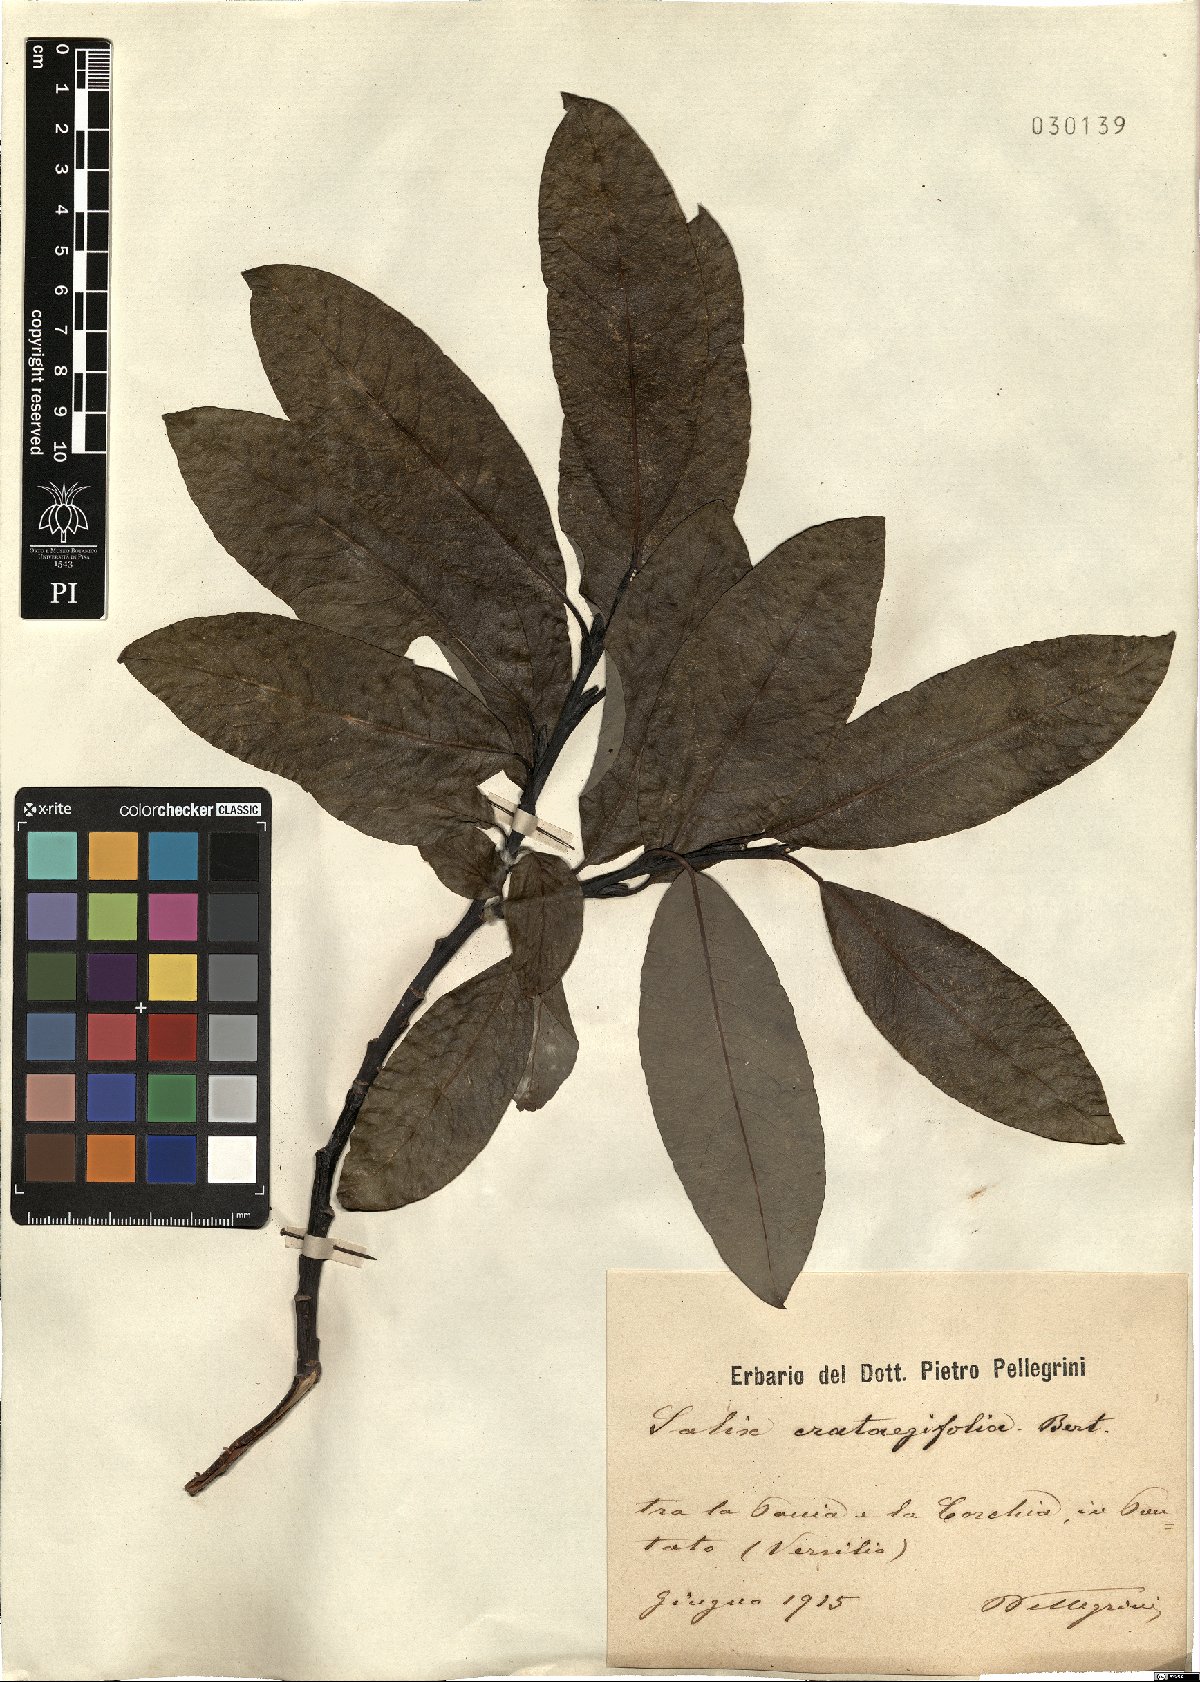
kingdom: Plantae
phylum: Tracheophyta
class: Magnoliopsida
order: Malpighiales
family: Salicaceae
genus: Salix
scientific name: Salix crataegifolia
